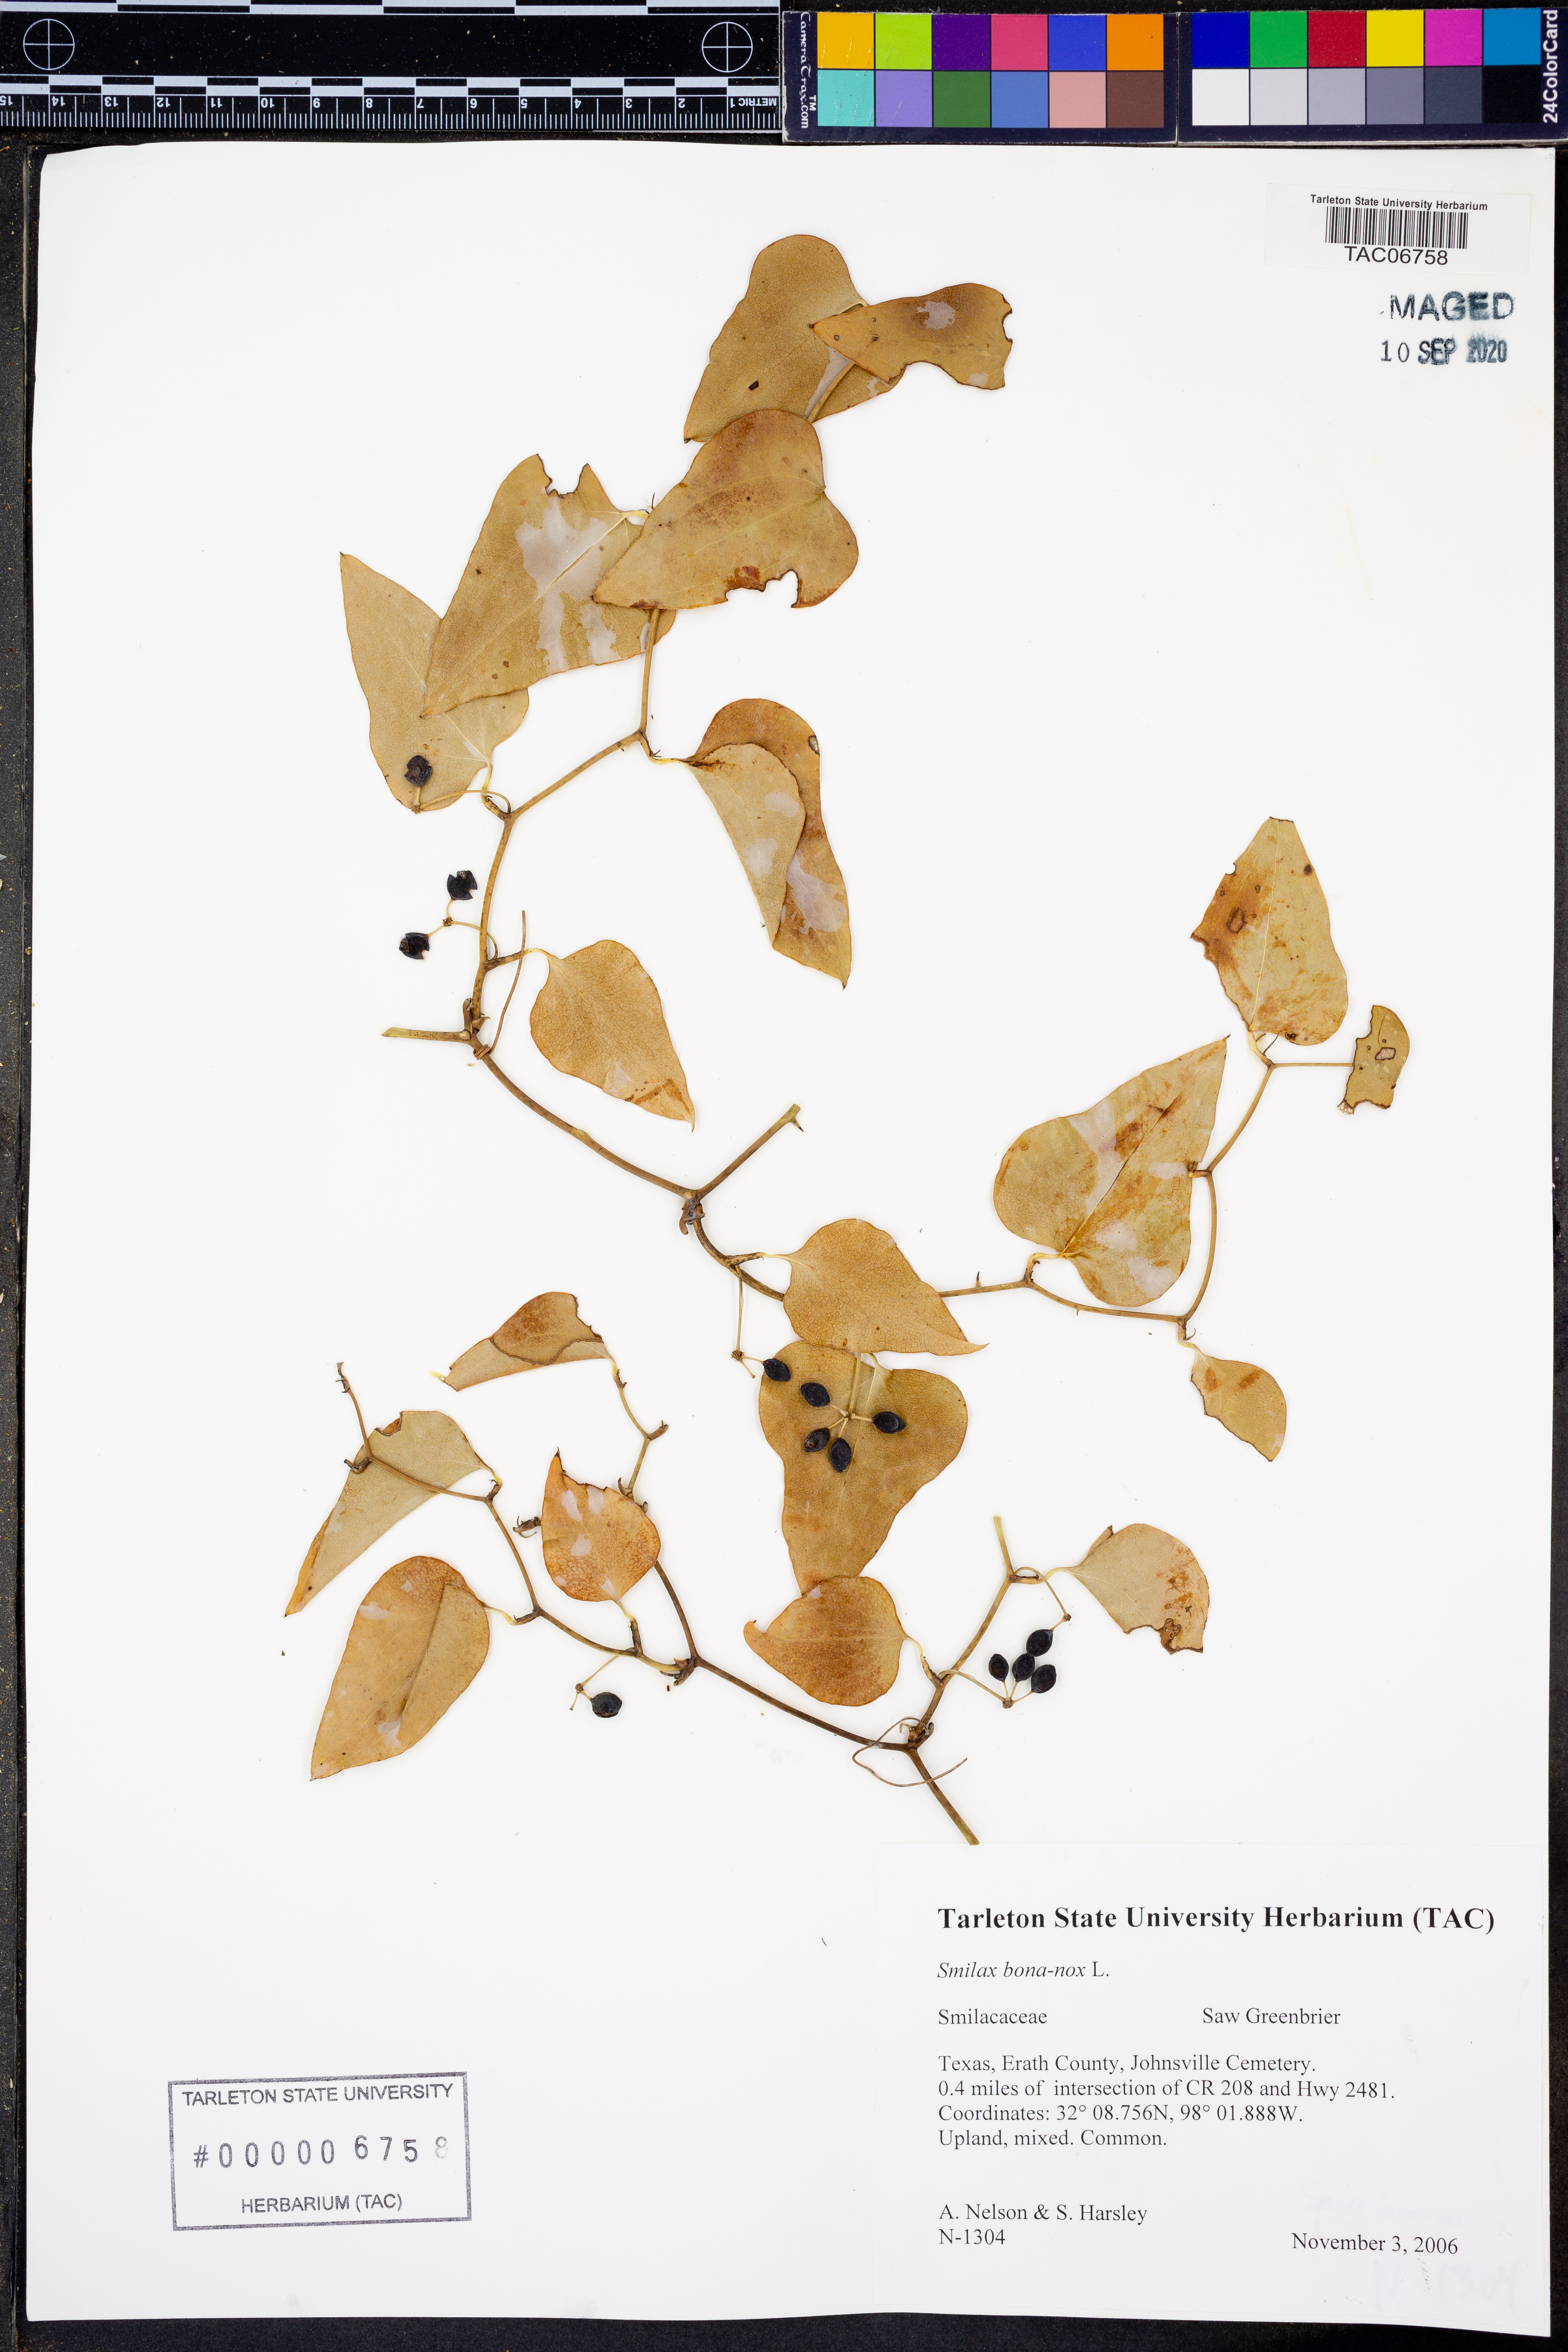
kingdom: Plantae
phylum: Tracheophyta
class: Liliopsida
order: Liliales
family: Smilacaceae
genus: Smilax
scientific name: Smilax bona-nox
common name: Catbrier
